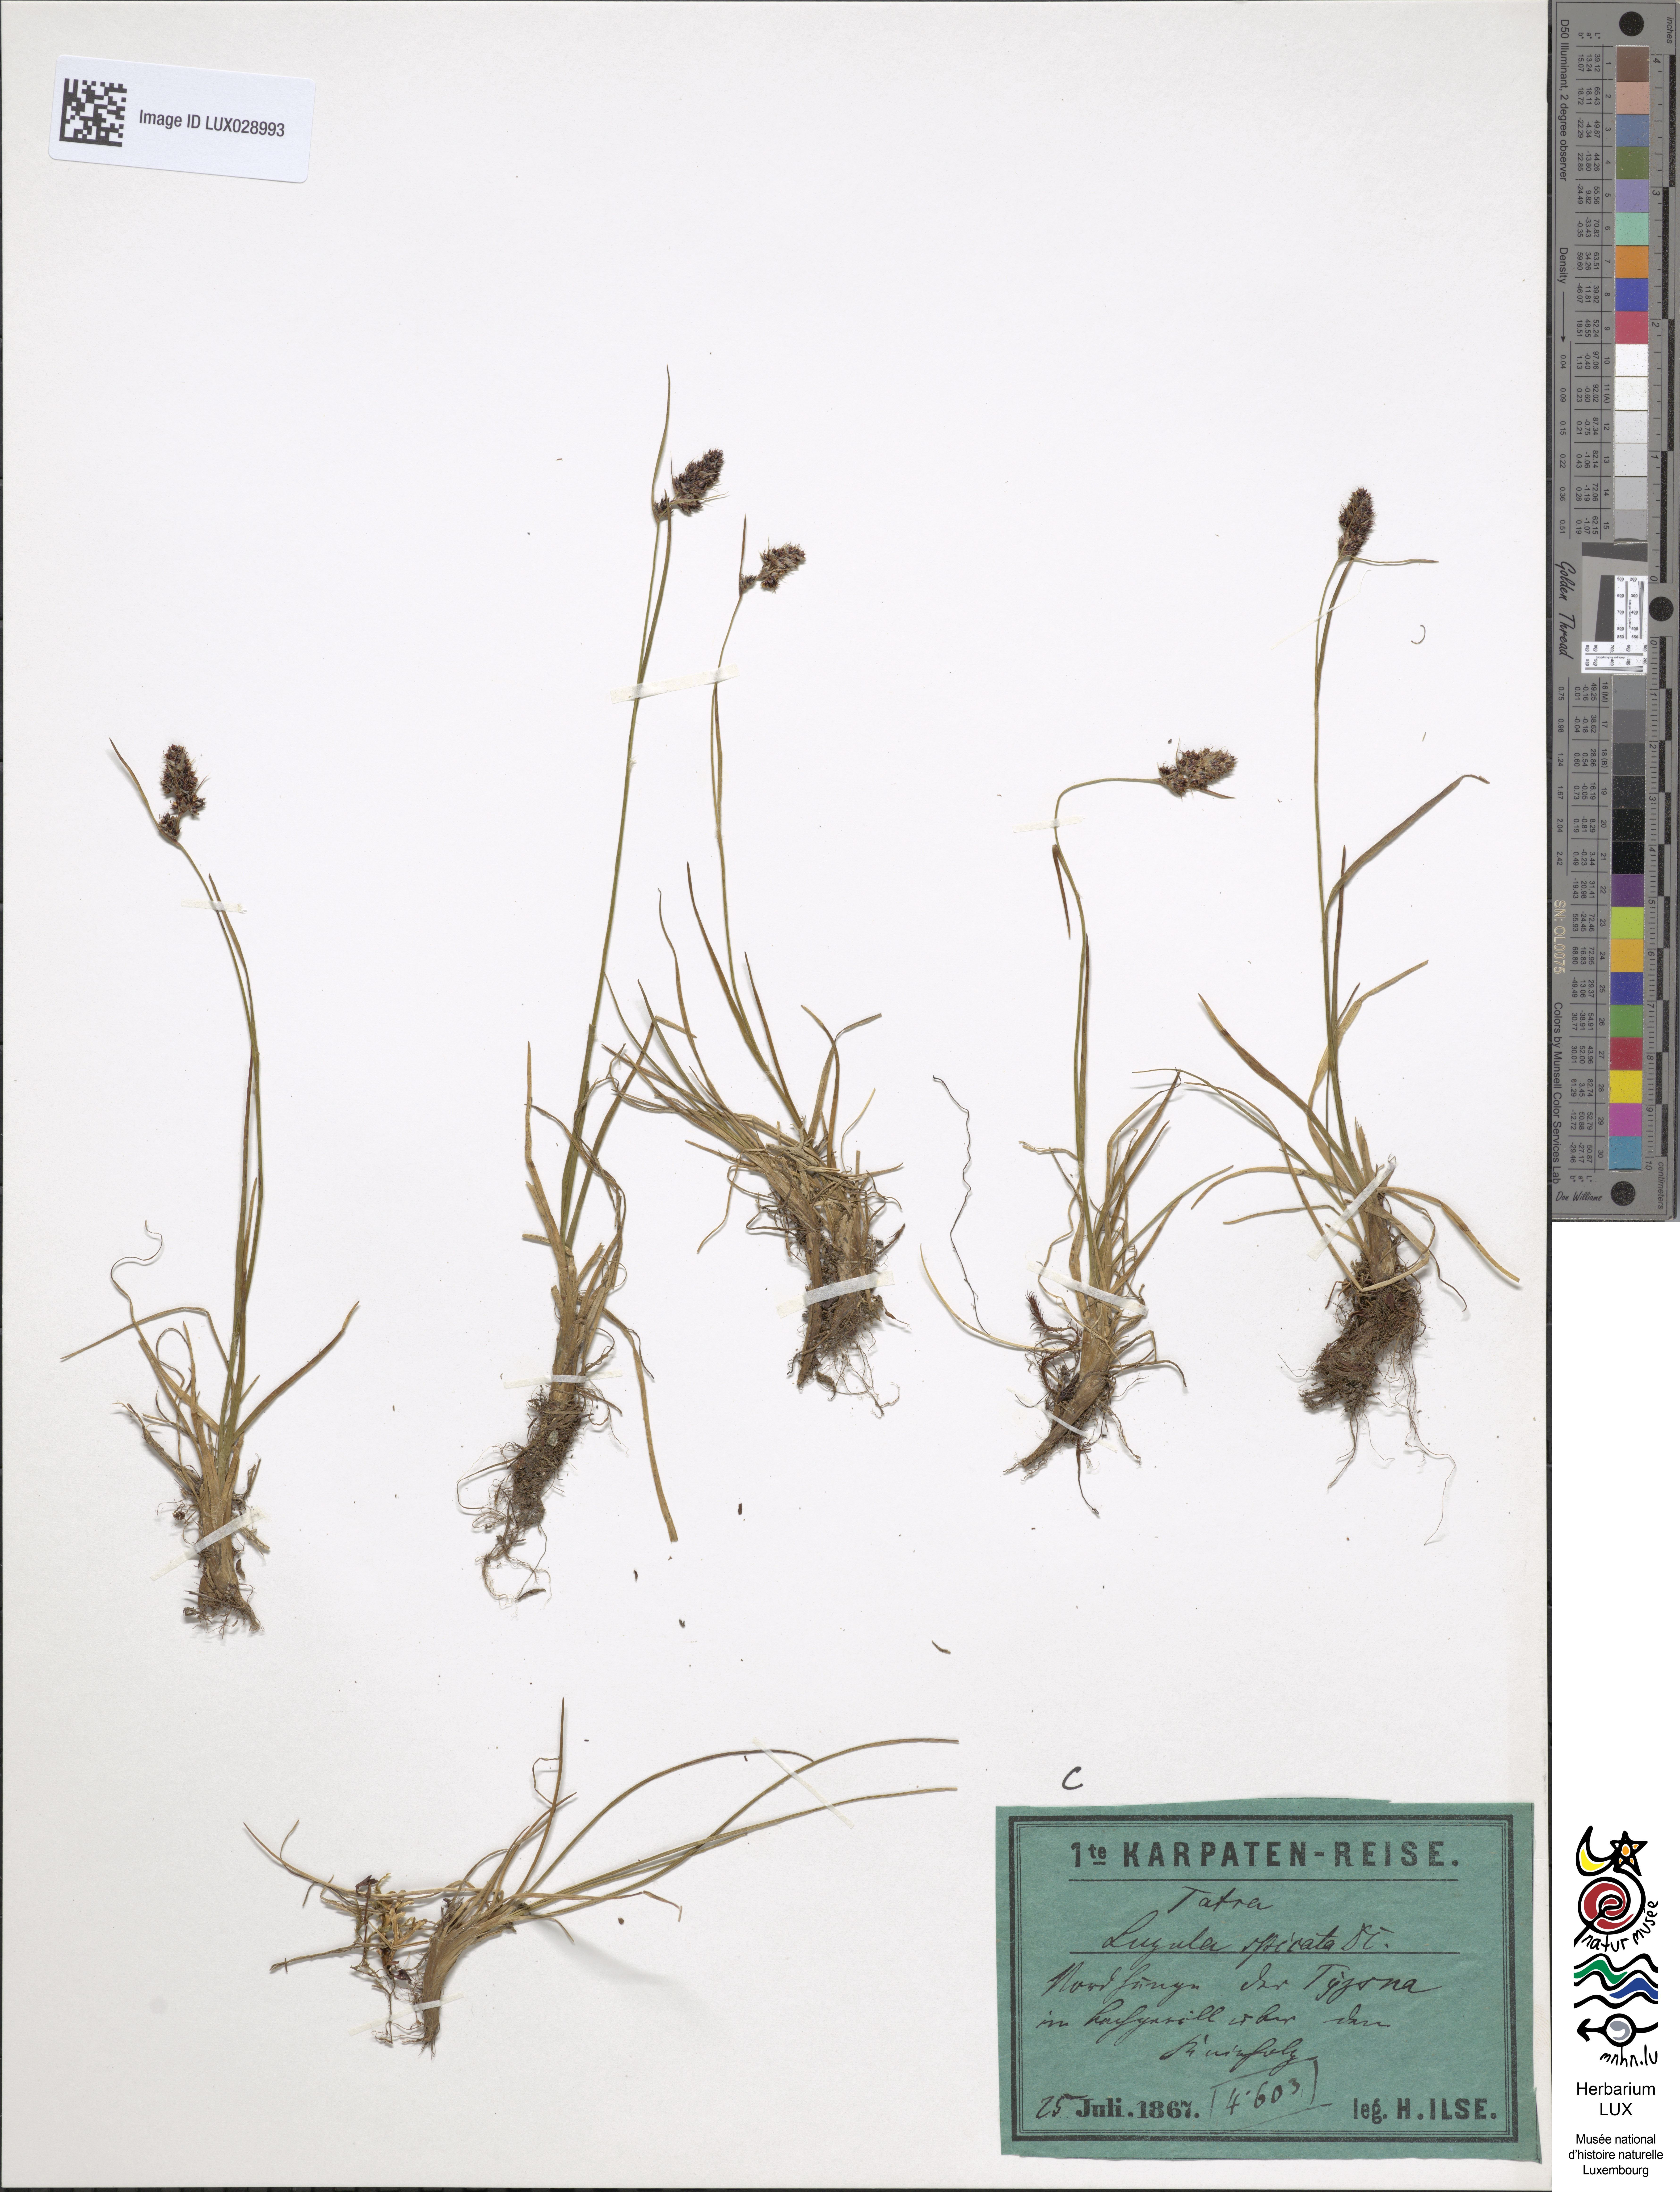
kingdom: Plantae
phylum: Tracheophyta
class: Liliopsida
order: Poales
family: Juncaceae
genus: Luzula
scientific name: Luzula spicata
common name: Spiked wood-rush
